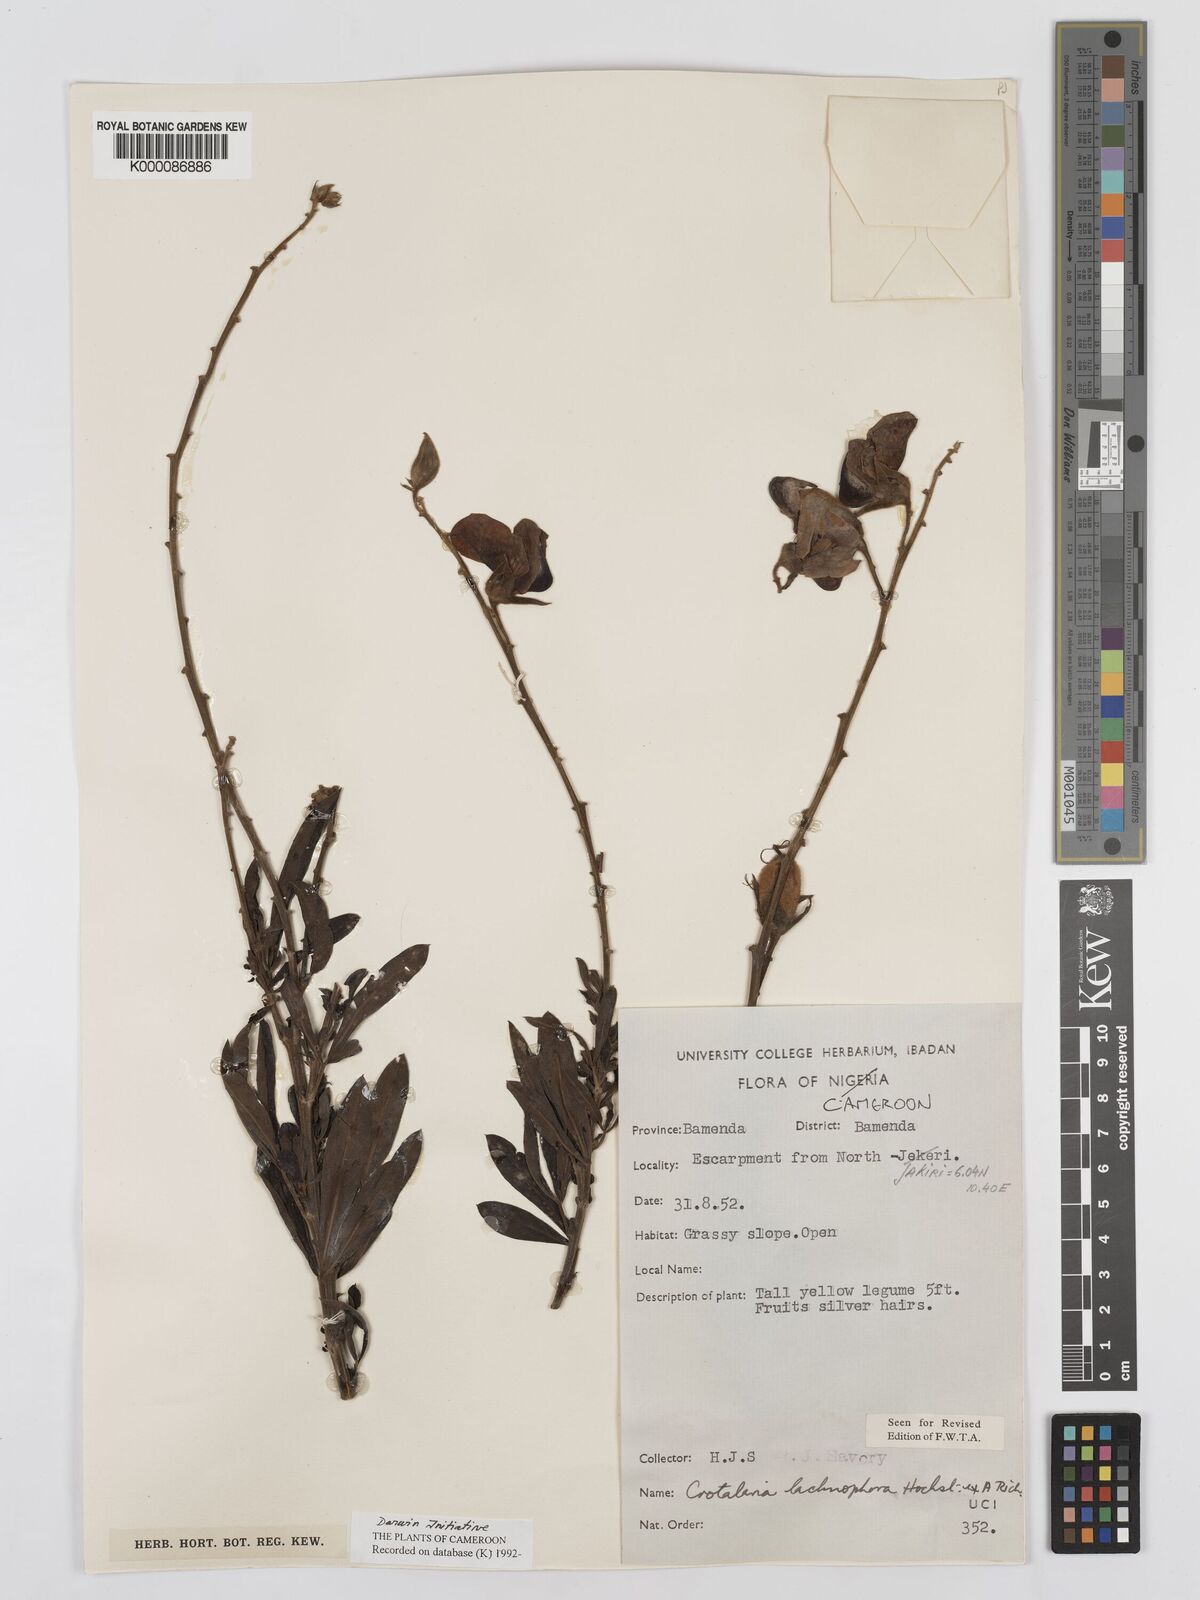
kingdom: Plantae
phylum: Tracheophyta
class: Magnoliopsida
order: Fabales
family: Fabaceae
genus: Crotalaria
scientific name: Crotalaria lachnophora
